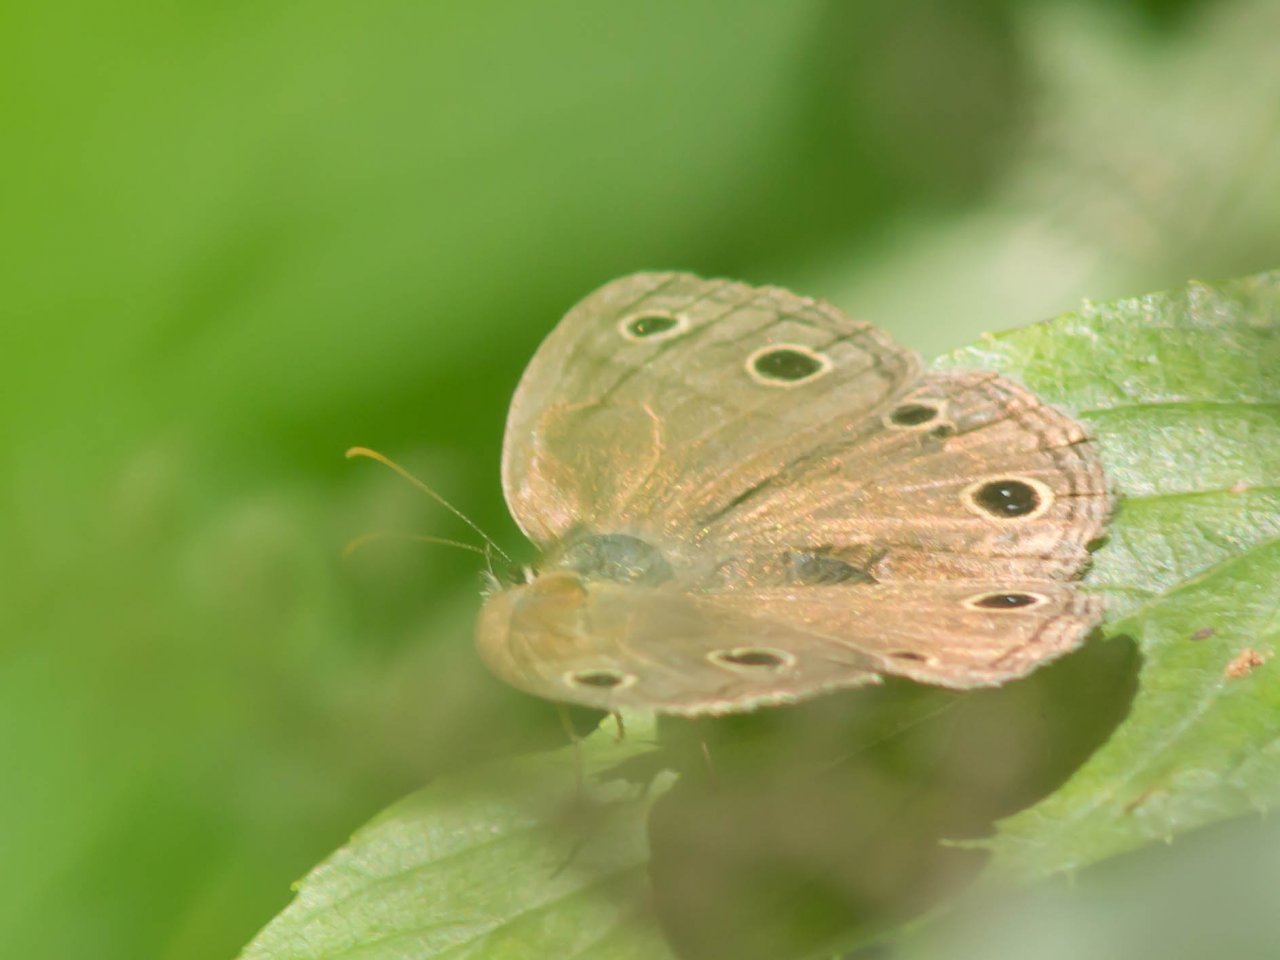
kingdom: Animalia
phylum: Arthropoda
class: Insecta
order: Lepidoptera
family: Nymphalidae
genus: Euptychia
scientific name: Euptychia cymela
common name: Little Wood Satyr
